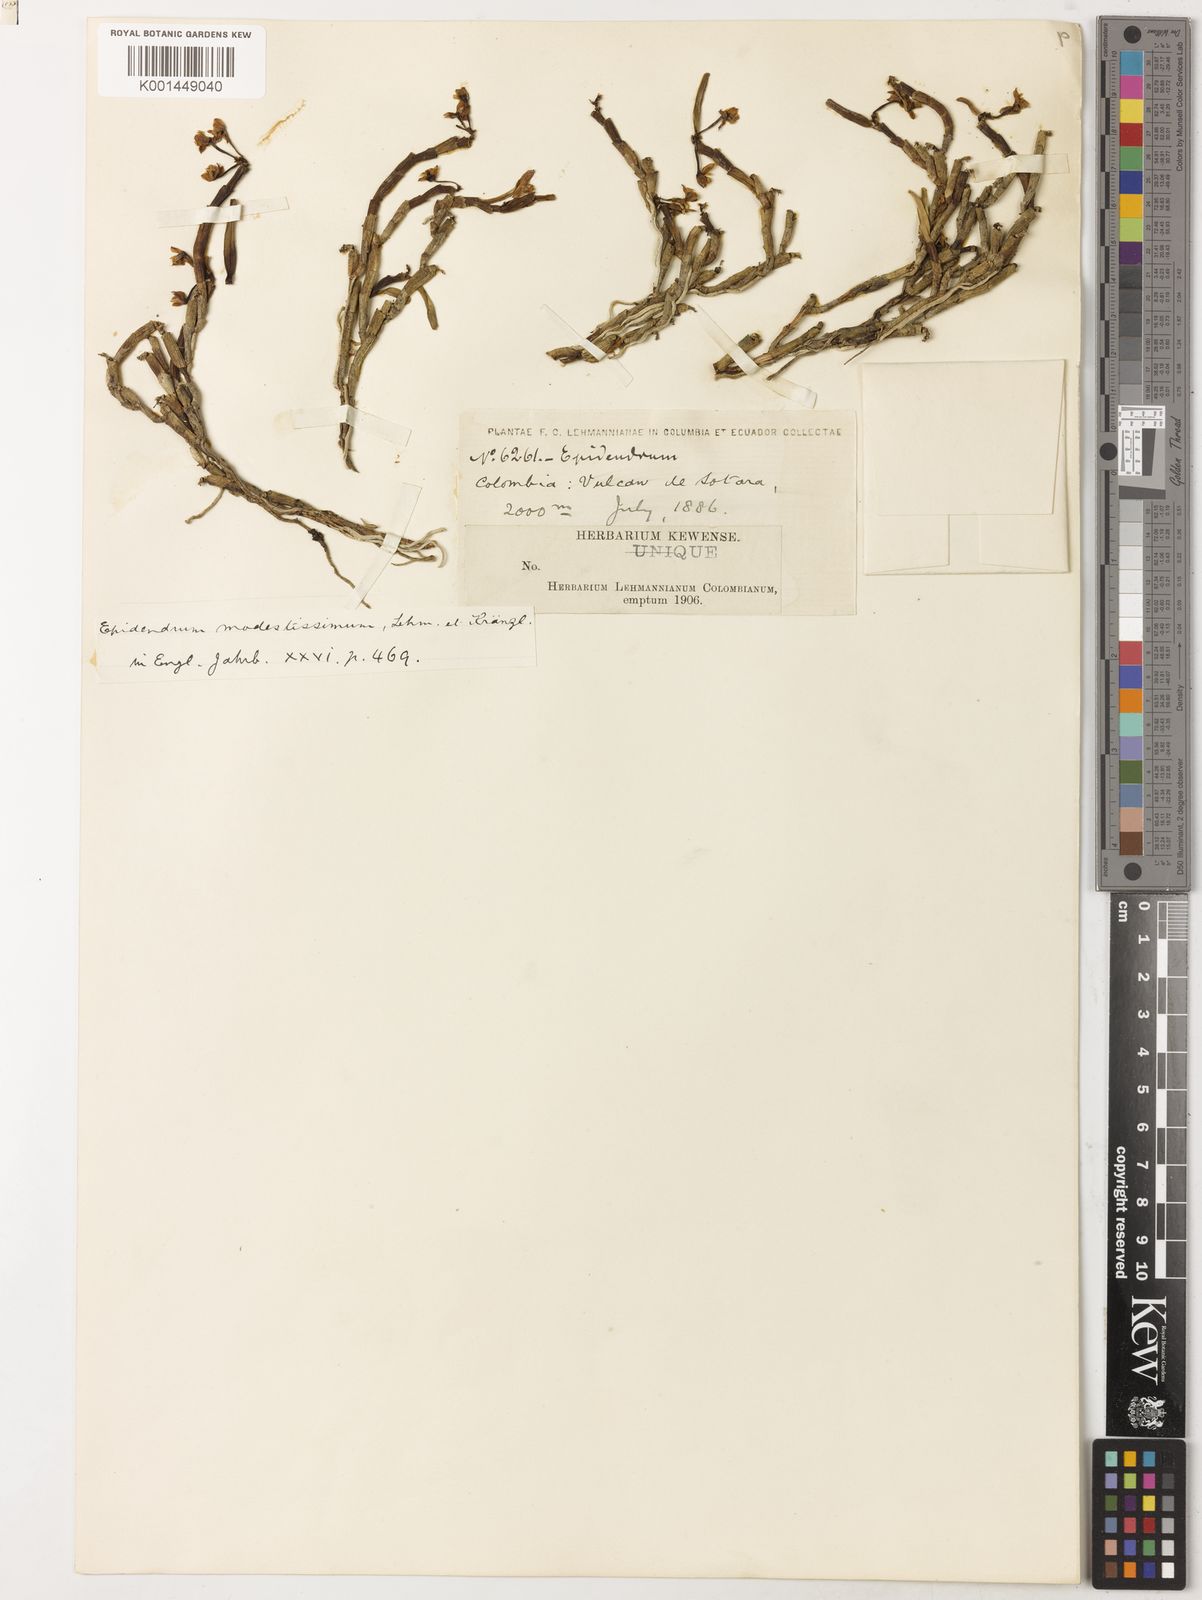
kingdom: Plantae
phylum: Tracheophyta
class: Liliopsida
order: Asparagales
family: Orchidaceae
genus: Epidendrum
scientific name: Epidendrum modestissimum
